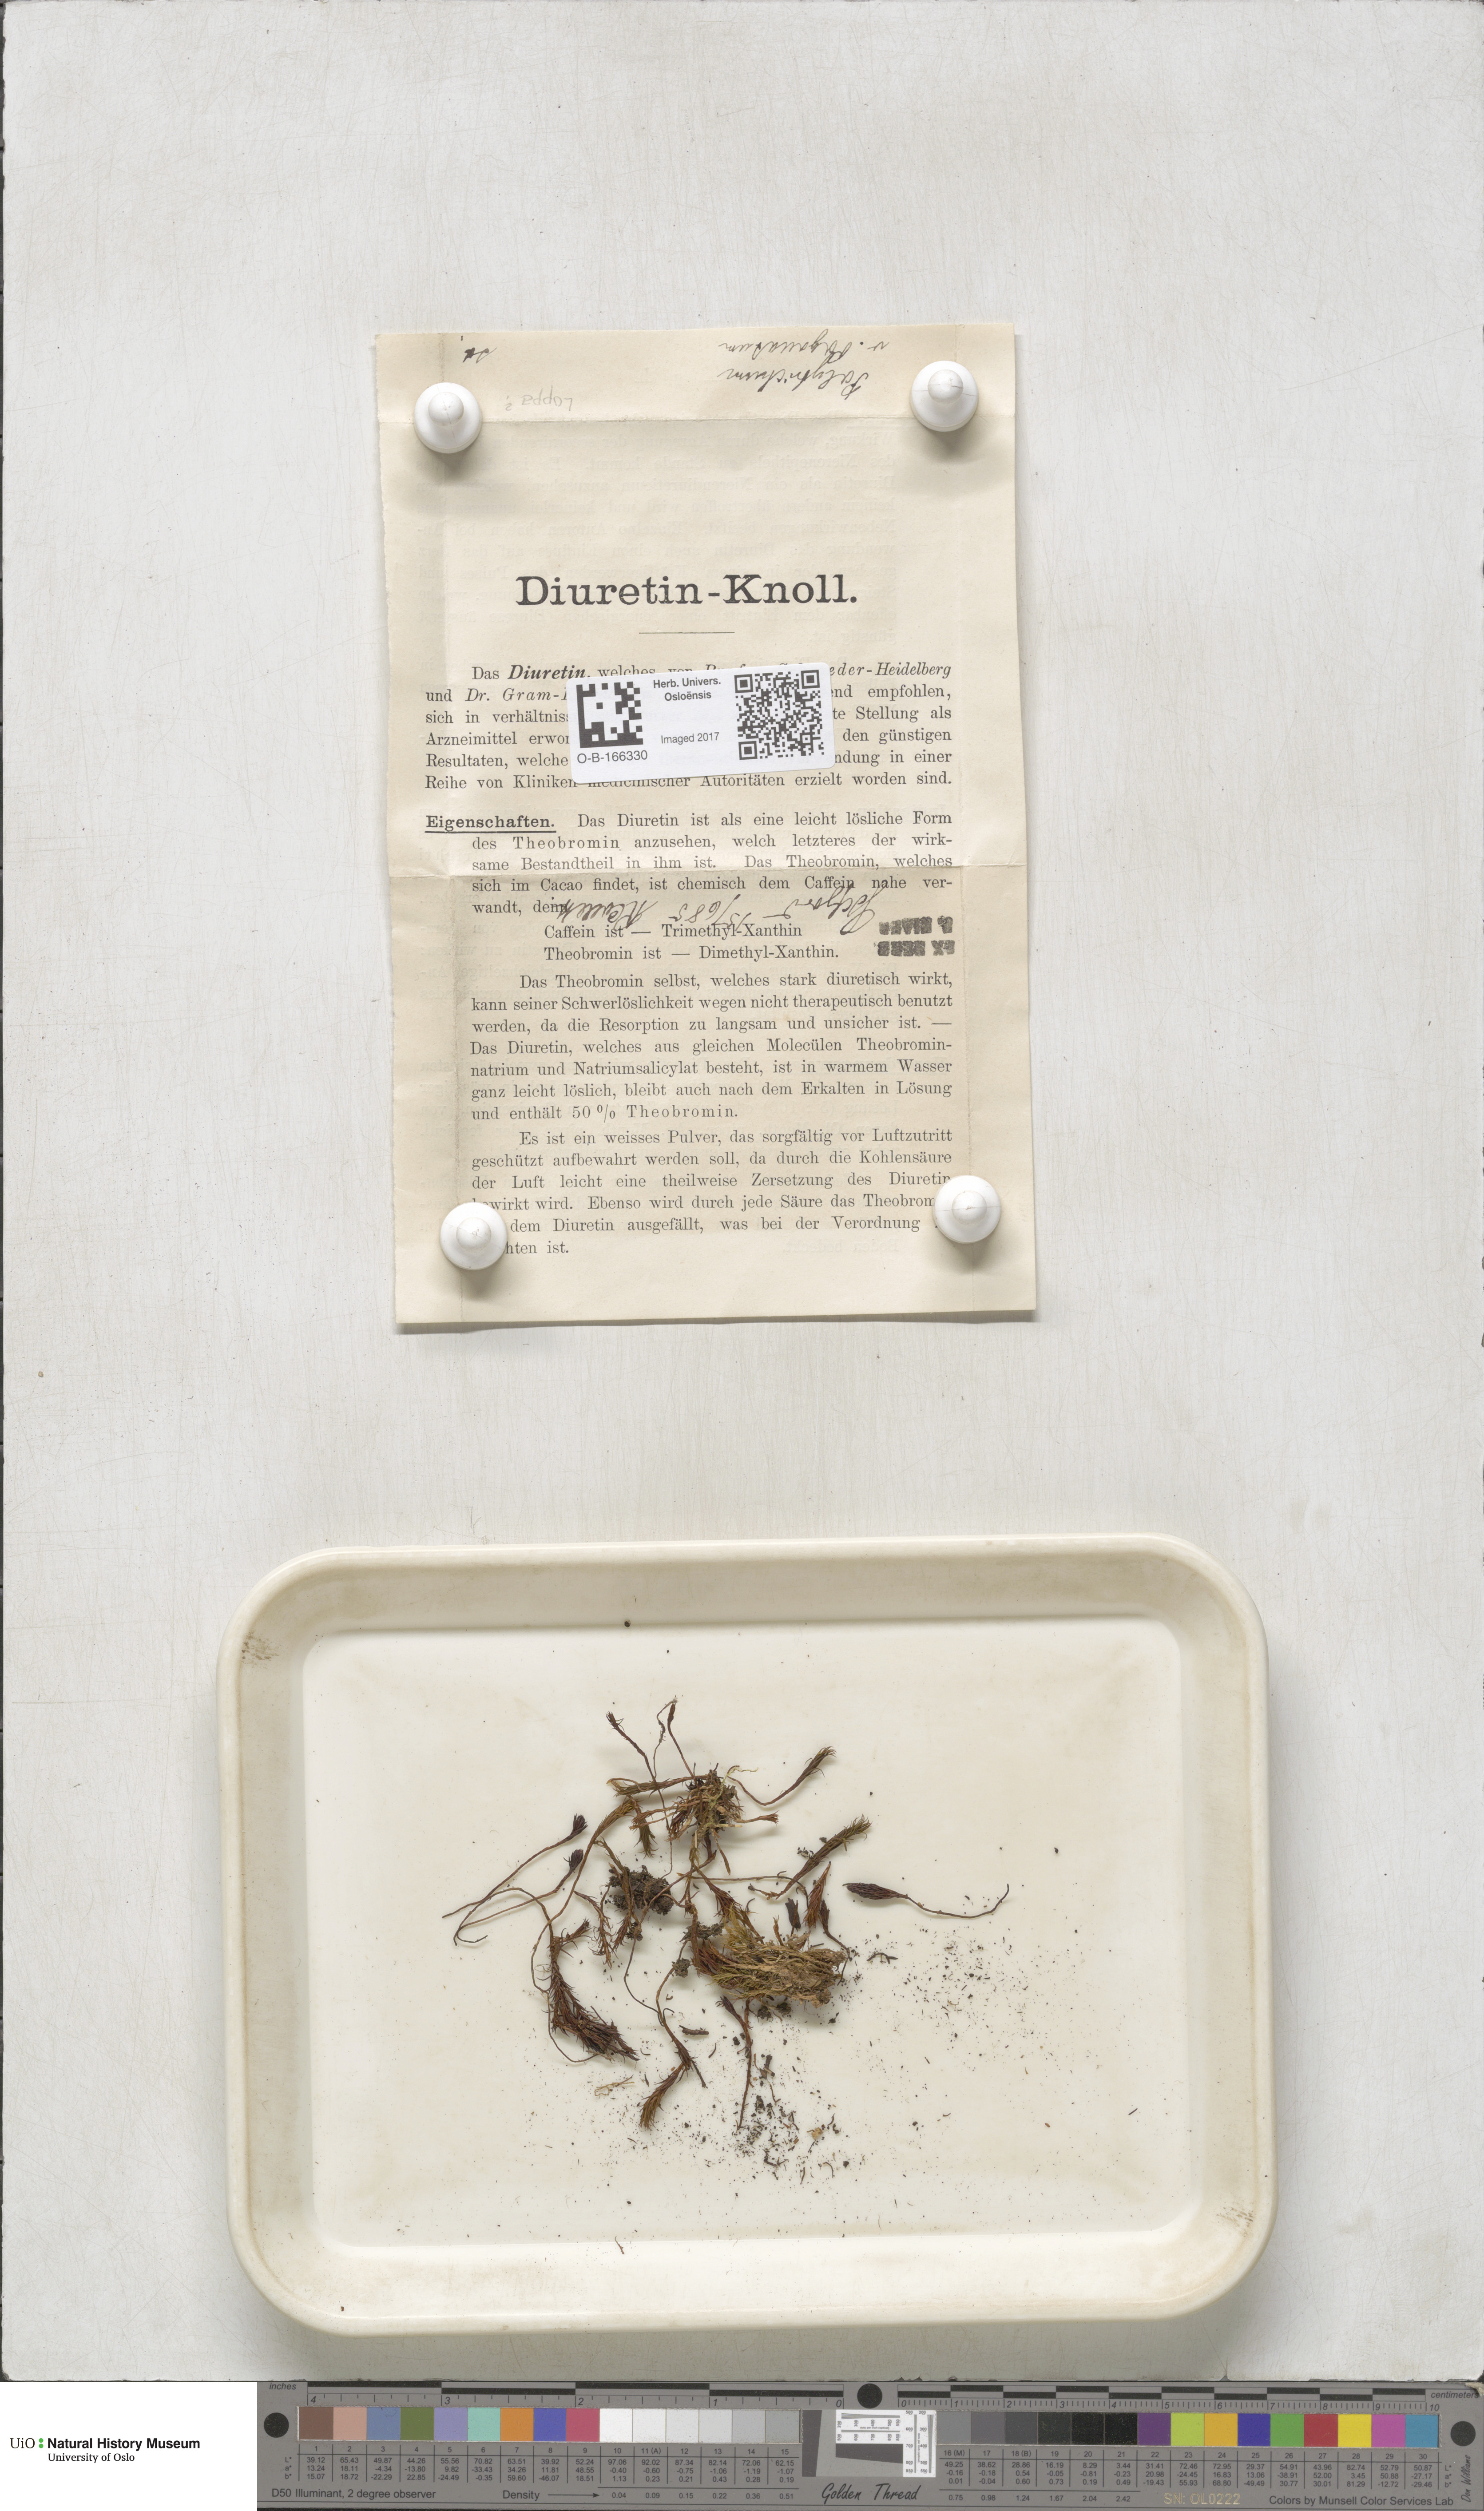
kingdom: Plantae
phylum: Bryophyta
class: Polytrichopsida
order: Polytrichales
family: Polytrichaceae
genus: Polytrichum
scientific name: Polytrichum
